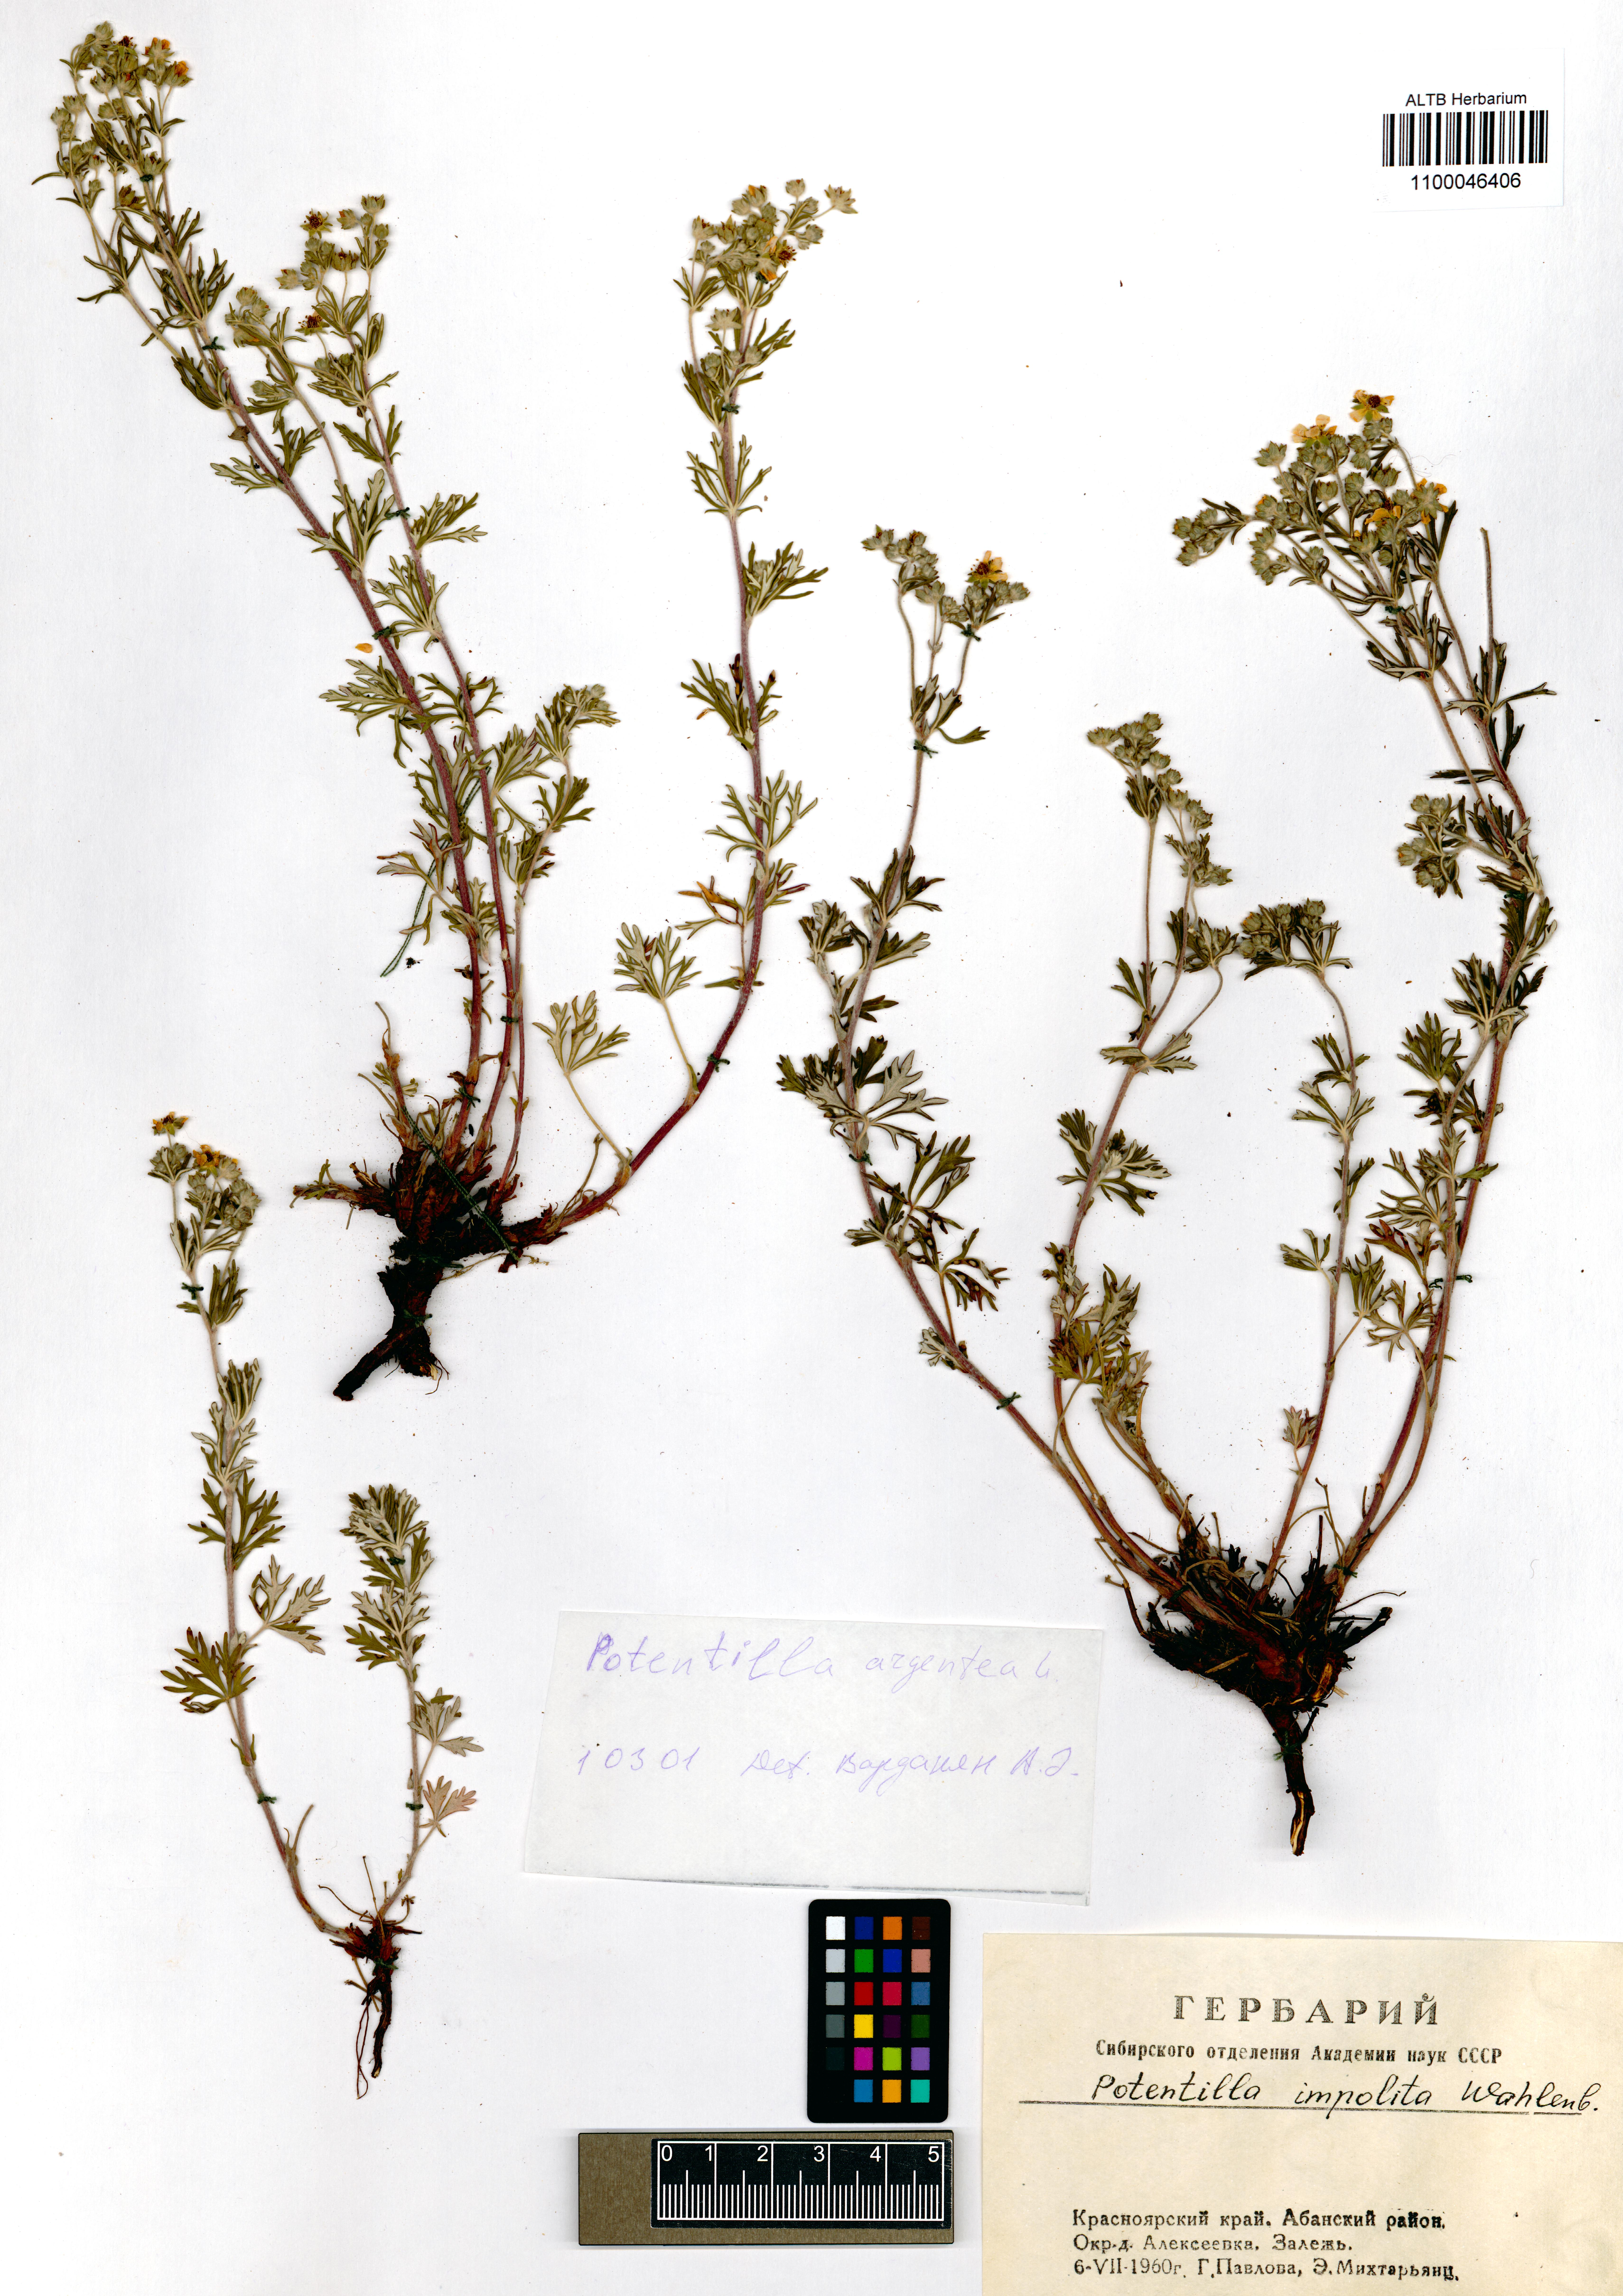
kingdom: Plantae
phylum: Tracheophyta
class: Magnoliopsida
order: Rosales
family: Rosaceae
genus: Potentilla
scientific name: Potentilla argentea
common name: Hoary cinquefoil
